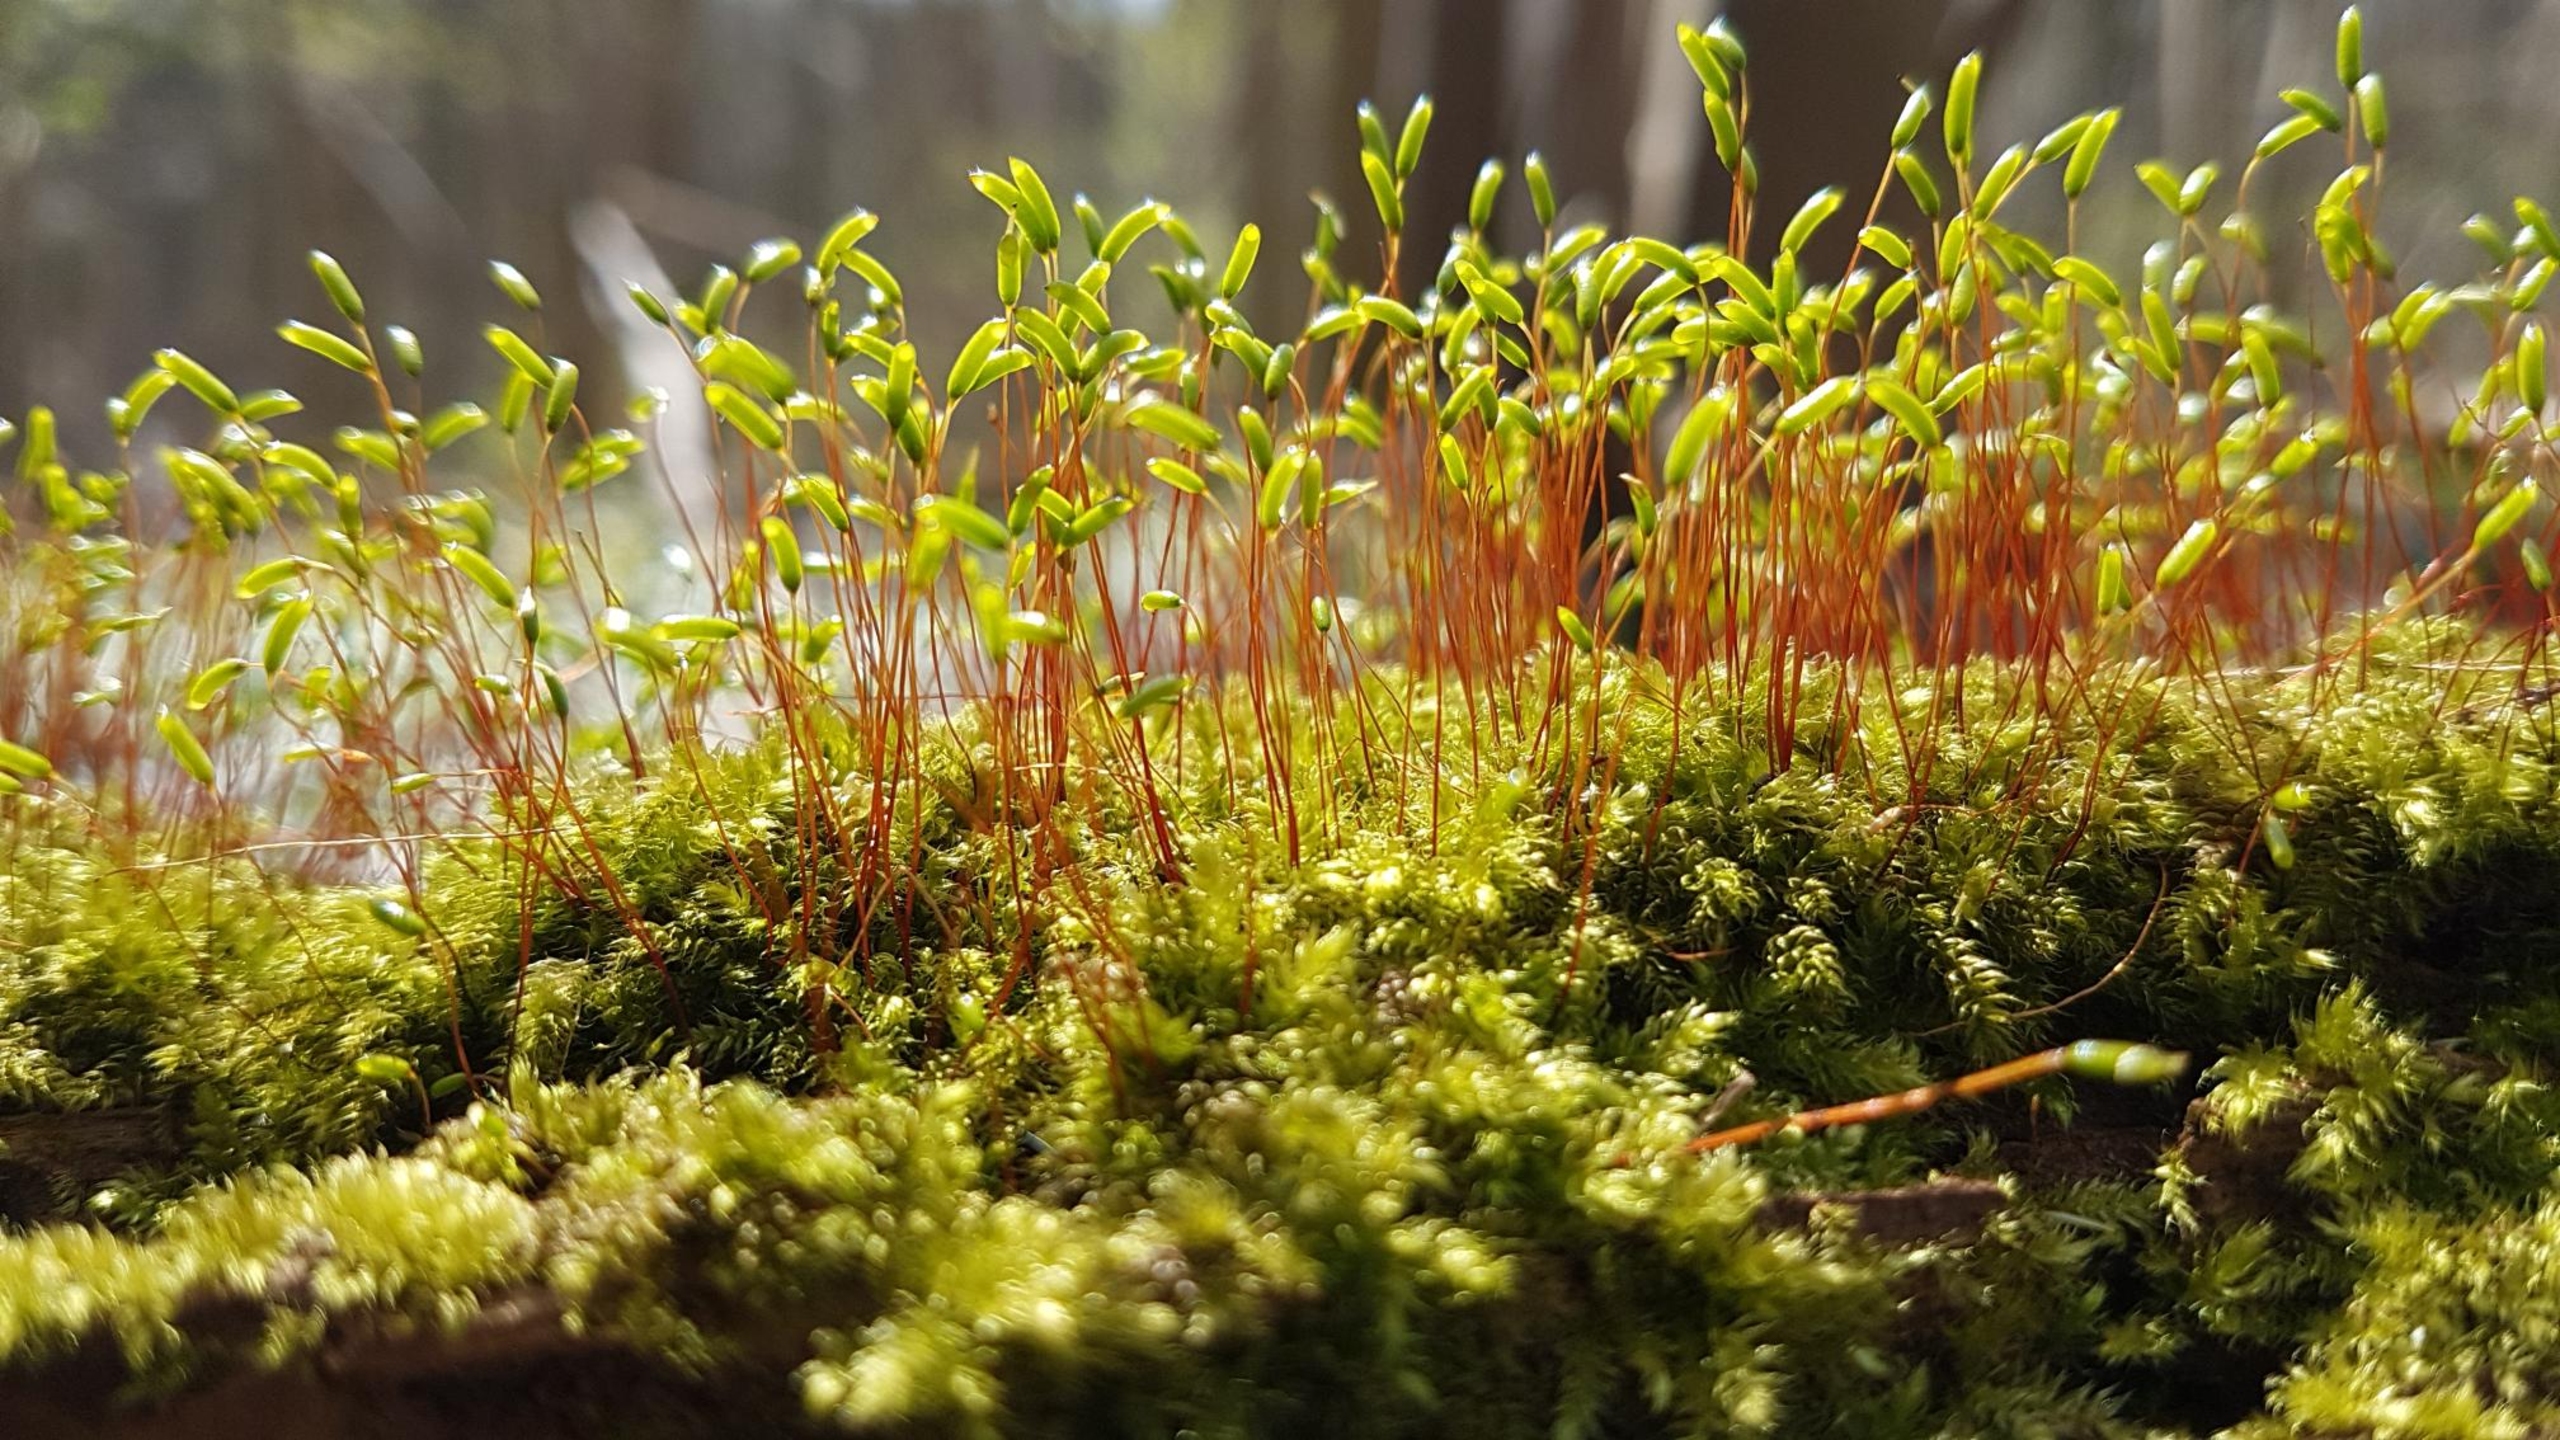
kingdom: Plantae
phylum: Bryophyta
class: Bryopsida
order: Hypnales
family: Plagiotheciaceae
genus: Herzogiella
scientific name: Herzogiella seligeri
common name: Stub-pølsekapsel
